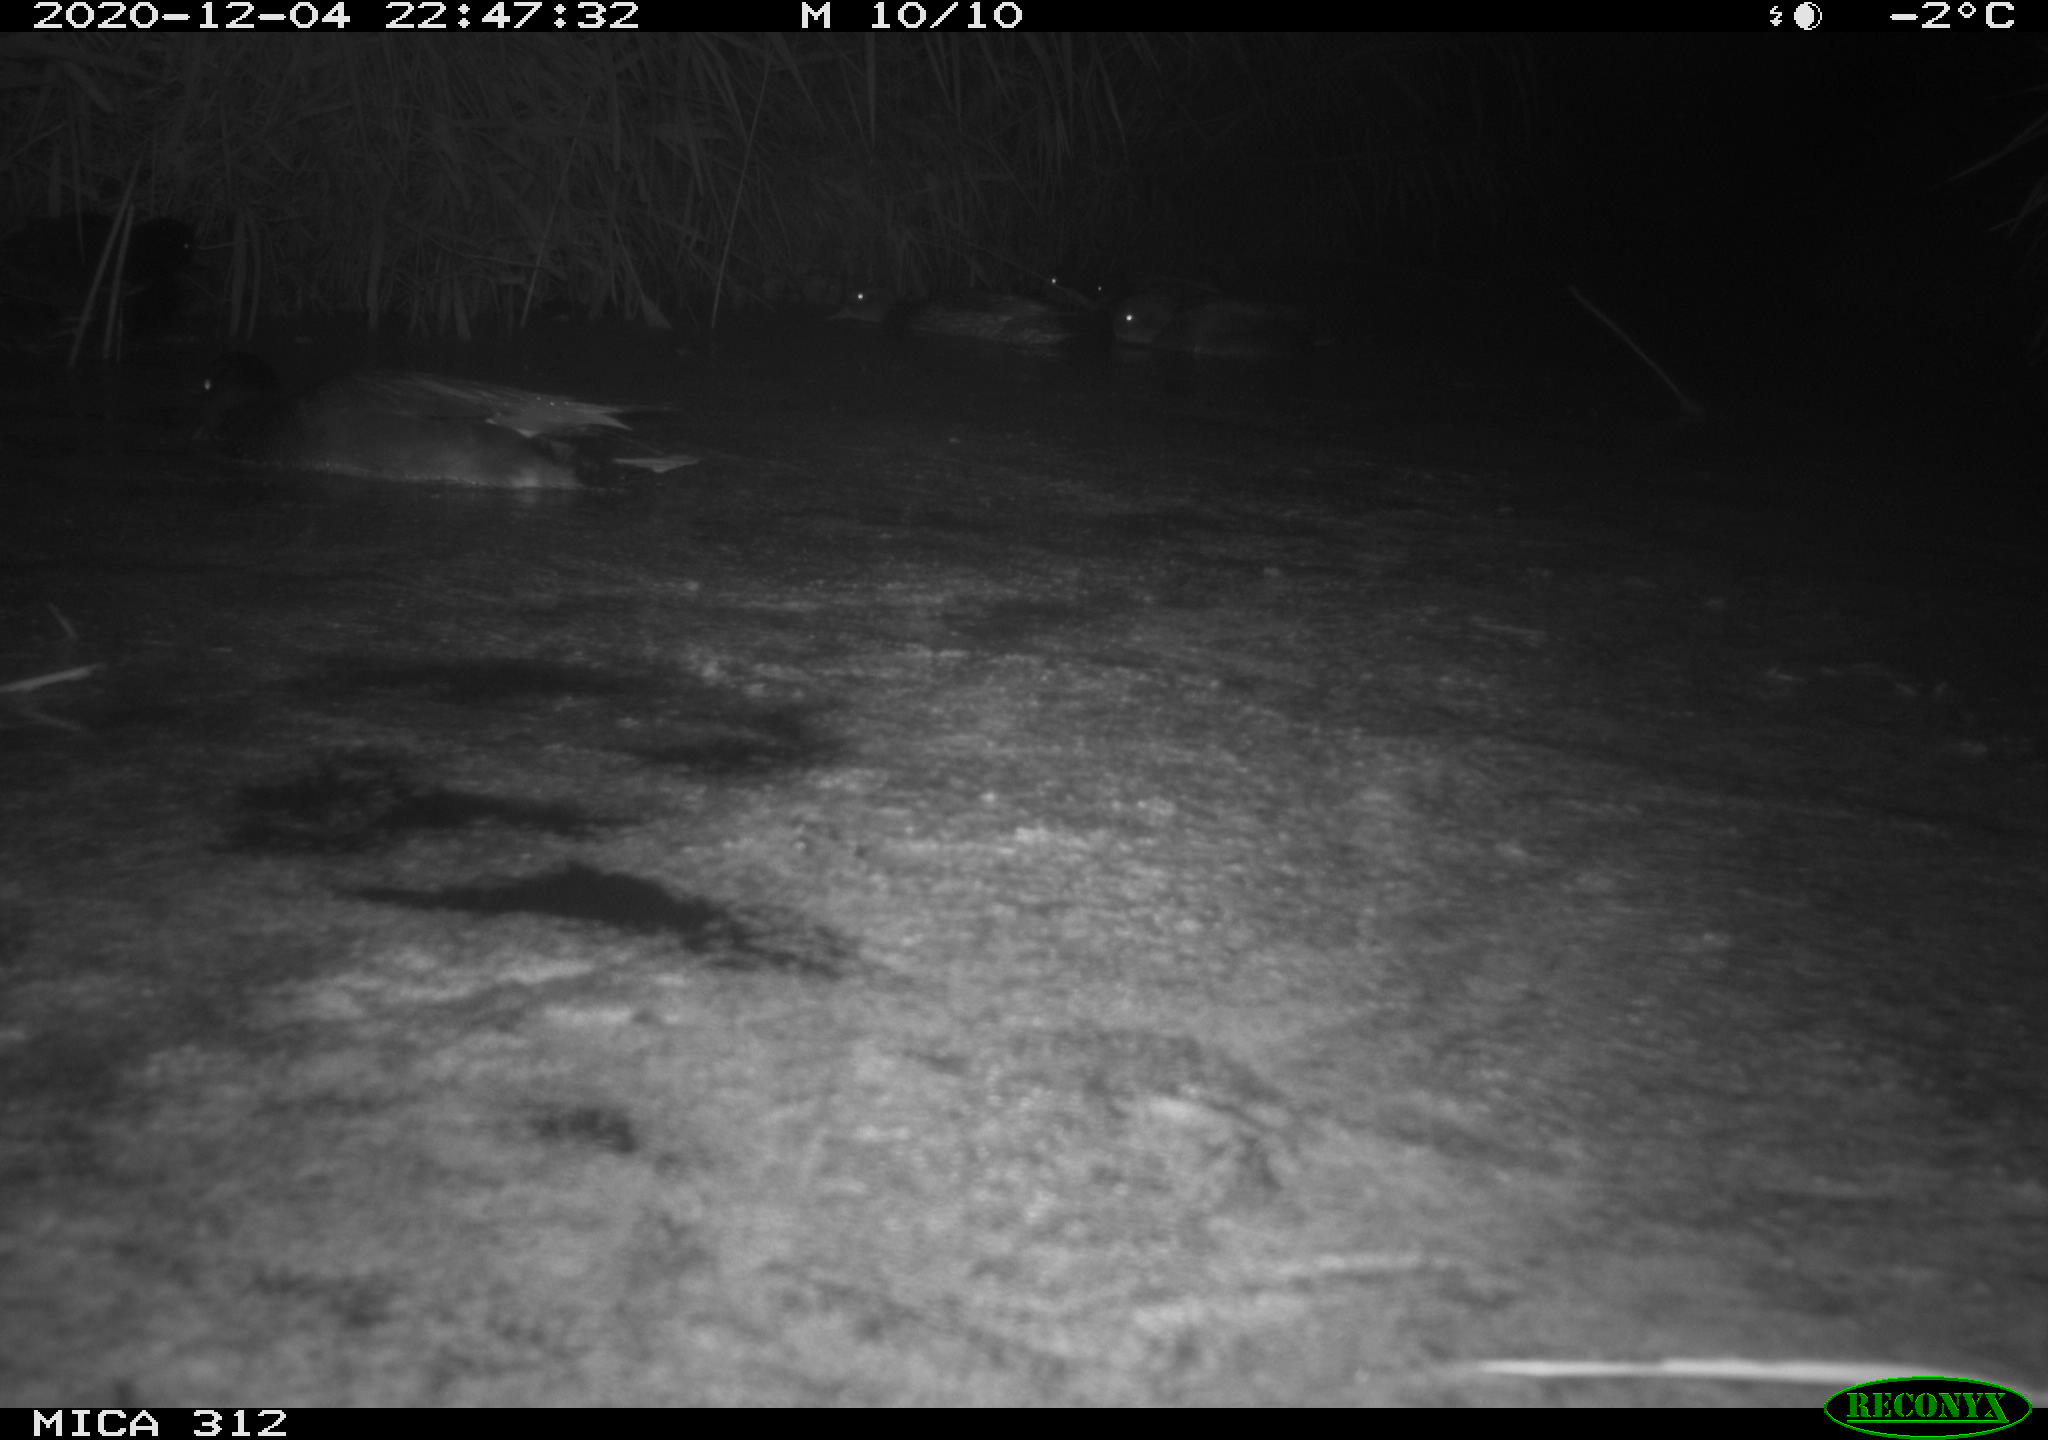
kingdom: Animalia
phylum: Chordata
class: Aves
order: Anseriformes
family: Anatidae
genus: Mareca
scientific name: Mareca strepera
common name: Gadwall
